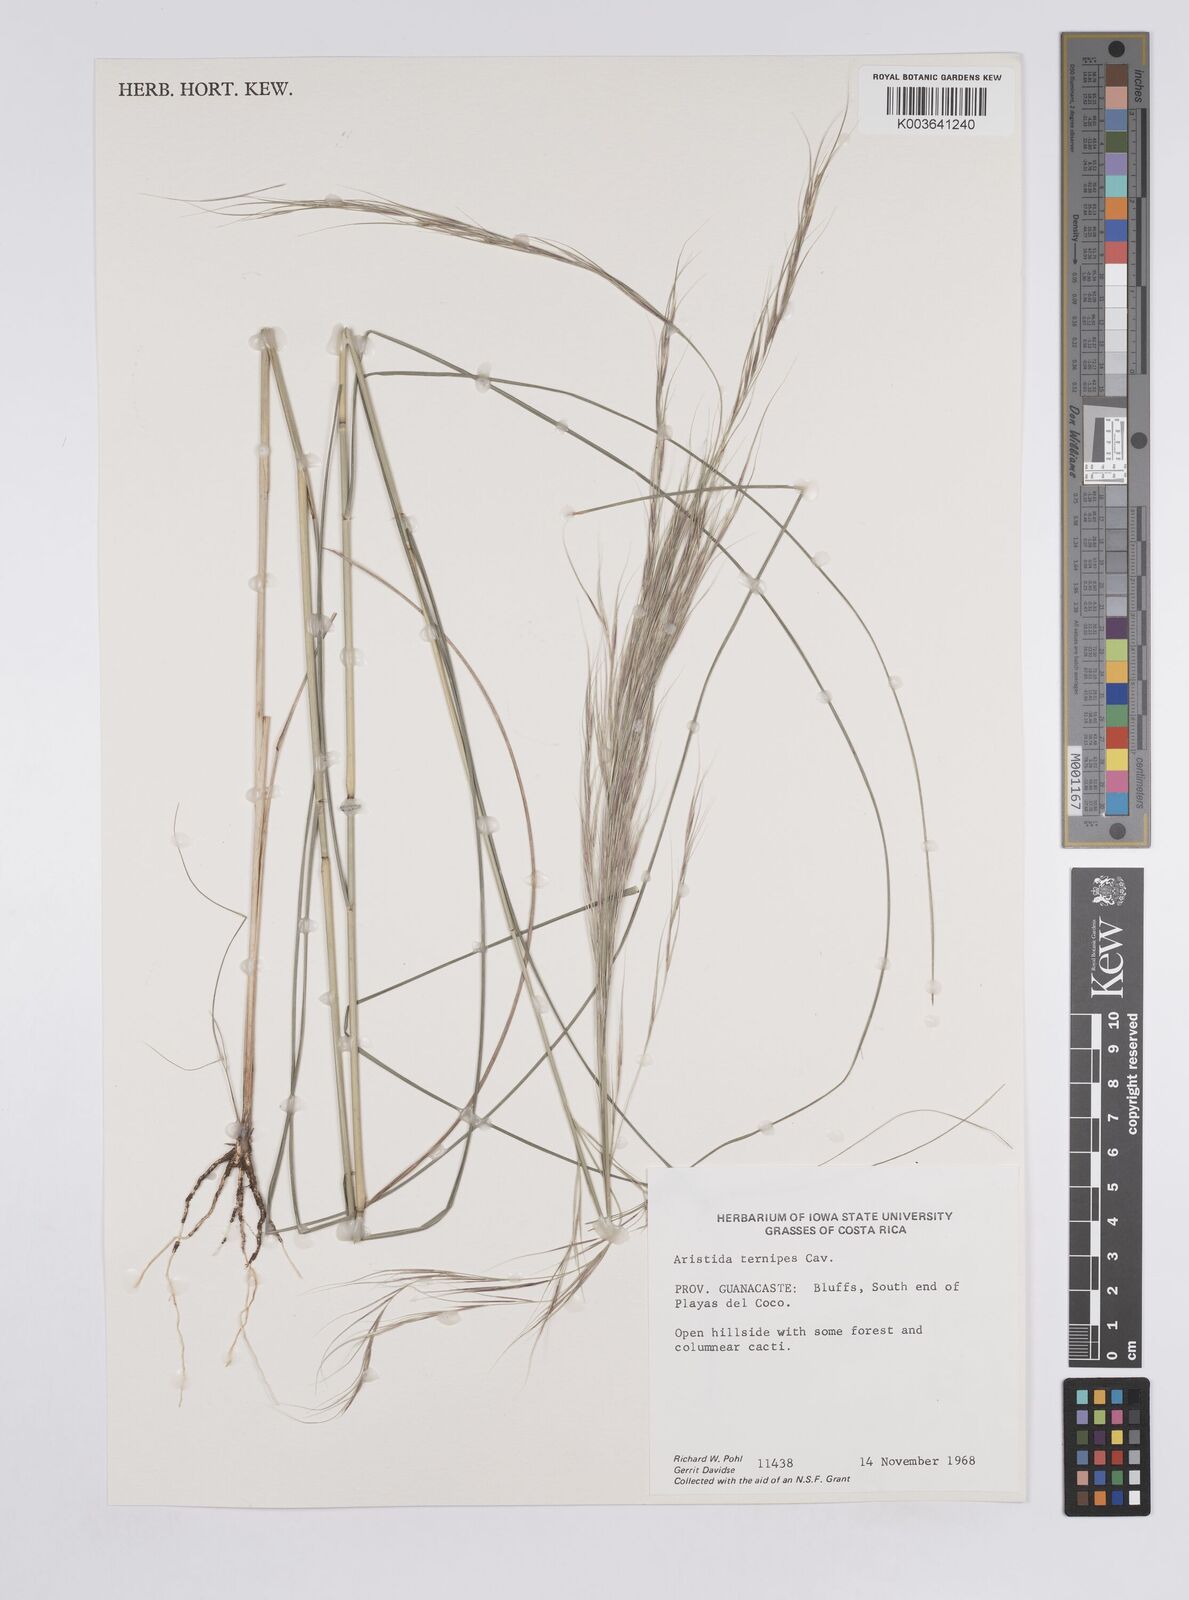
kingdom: Plantae
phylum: Tracheophyta
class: Liliopsida
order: Poales
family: Poaceae
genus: Aristida
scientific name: Aristida
